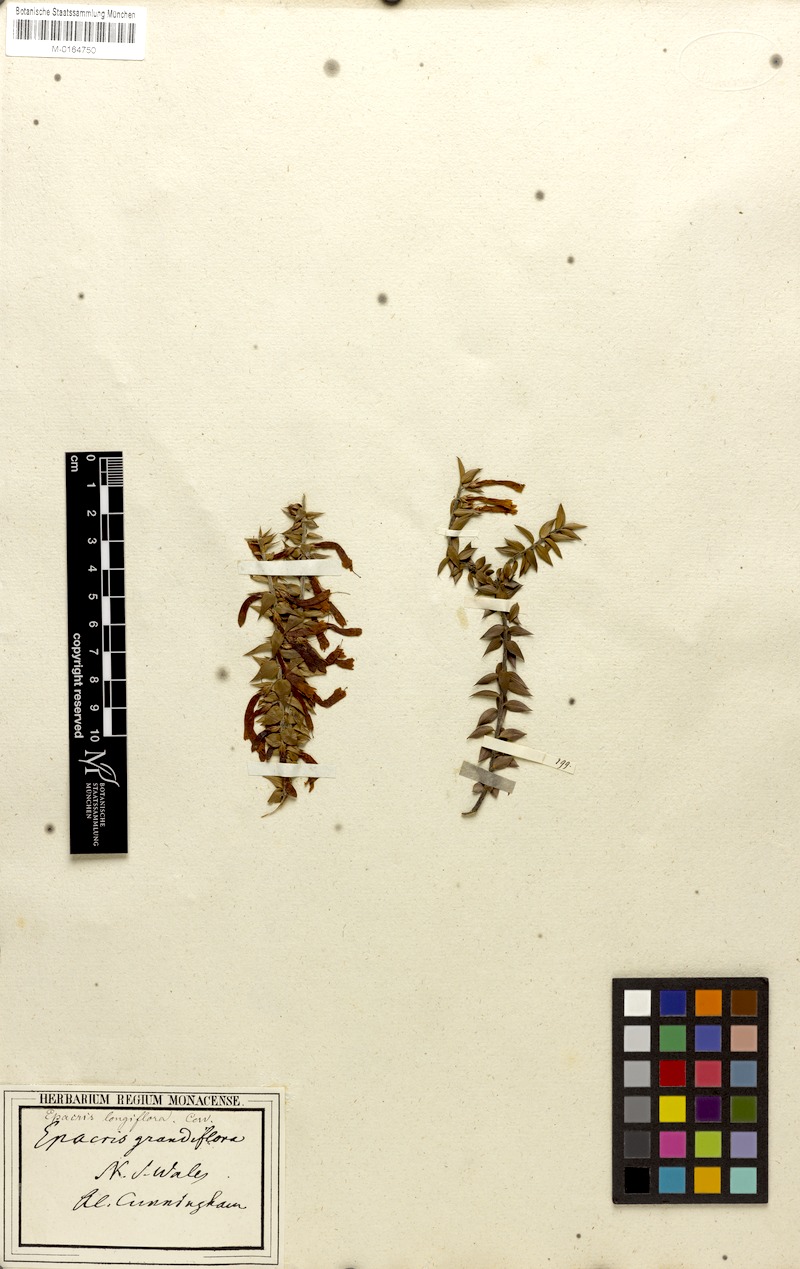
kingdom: Plantae
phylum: Tracheophyta
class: Magnoliopsida
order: Ericales
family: Ericaceae
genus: Epacris
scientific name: Epacris longiflora
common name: Fuchsia-heath
